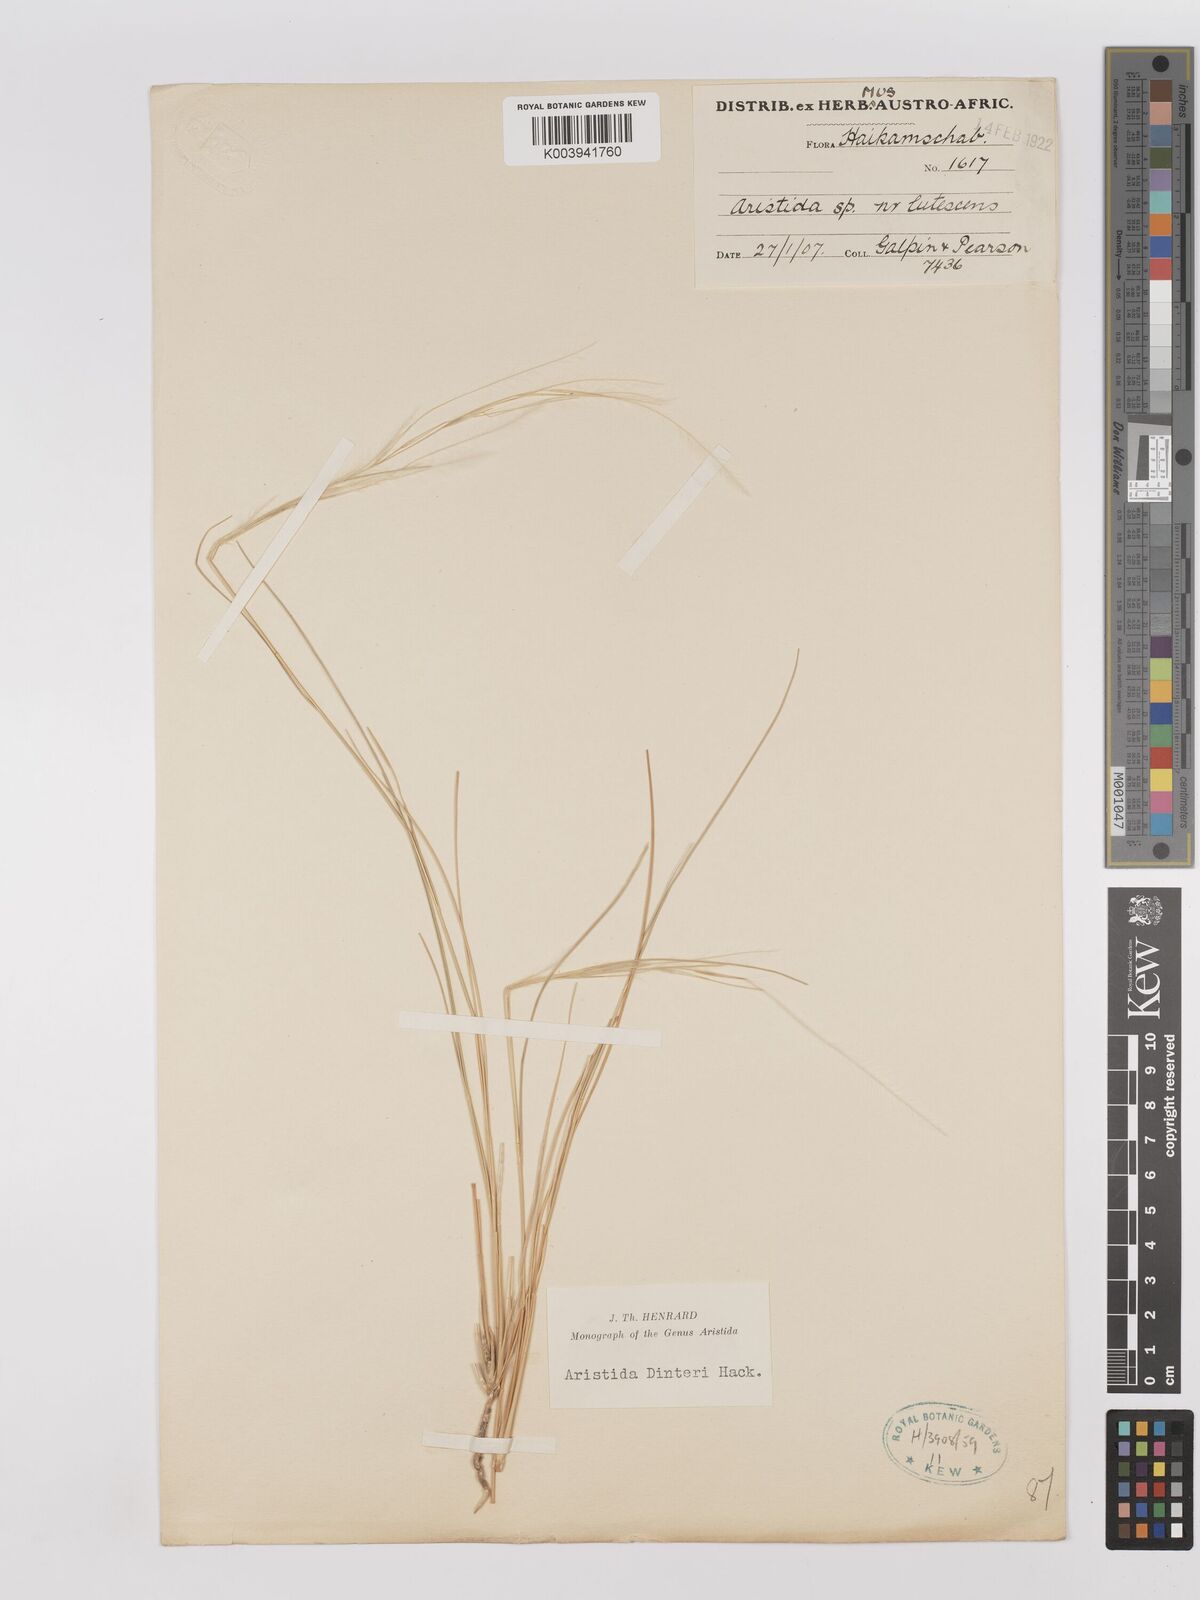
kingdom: Plantae
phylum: Tracheophyta
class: Liliopsida
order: Poales
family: Poaceae
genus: Stipagrostis
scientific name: Stipagrostis dinteri
